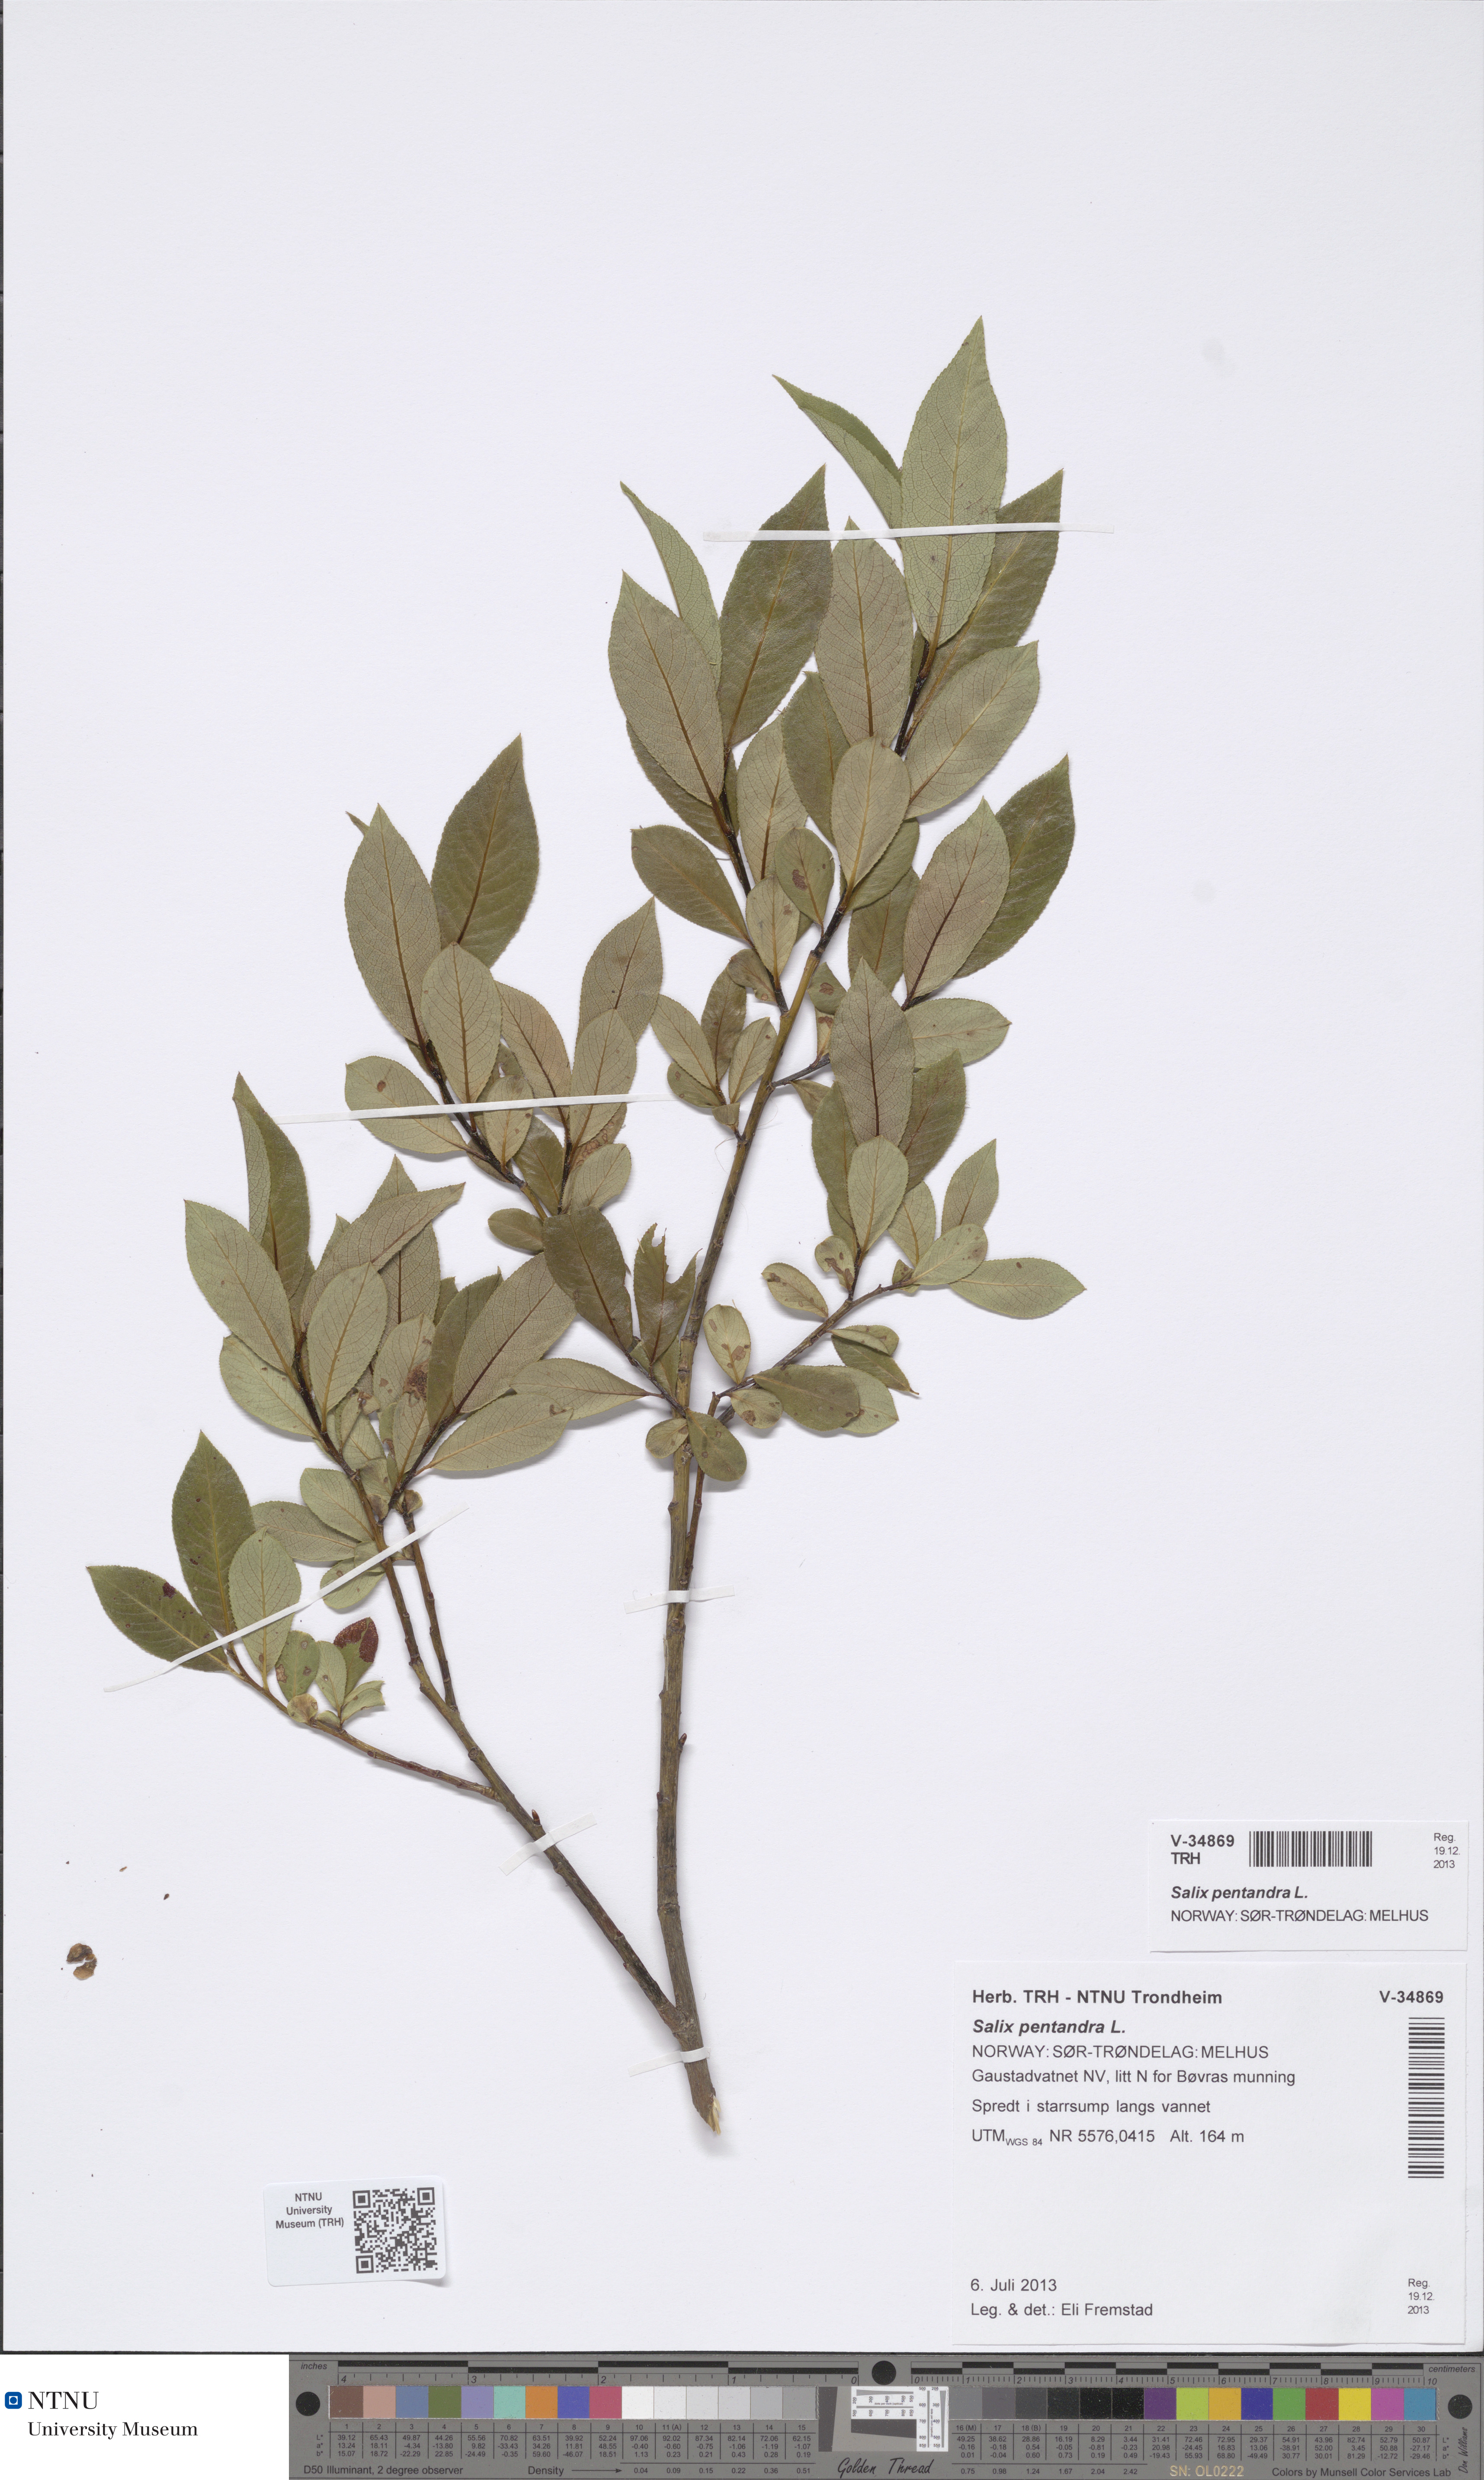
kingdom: Plantae
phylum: Tracheophyta
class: Magnoliopsida
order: Malpighiales
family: Salicaceae
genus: Salix
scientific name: Salix pentandra
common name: Bay willow
